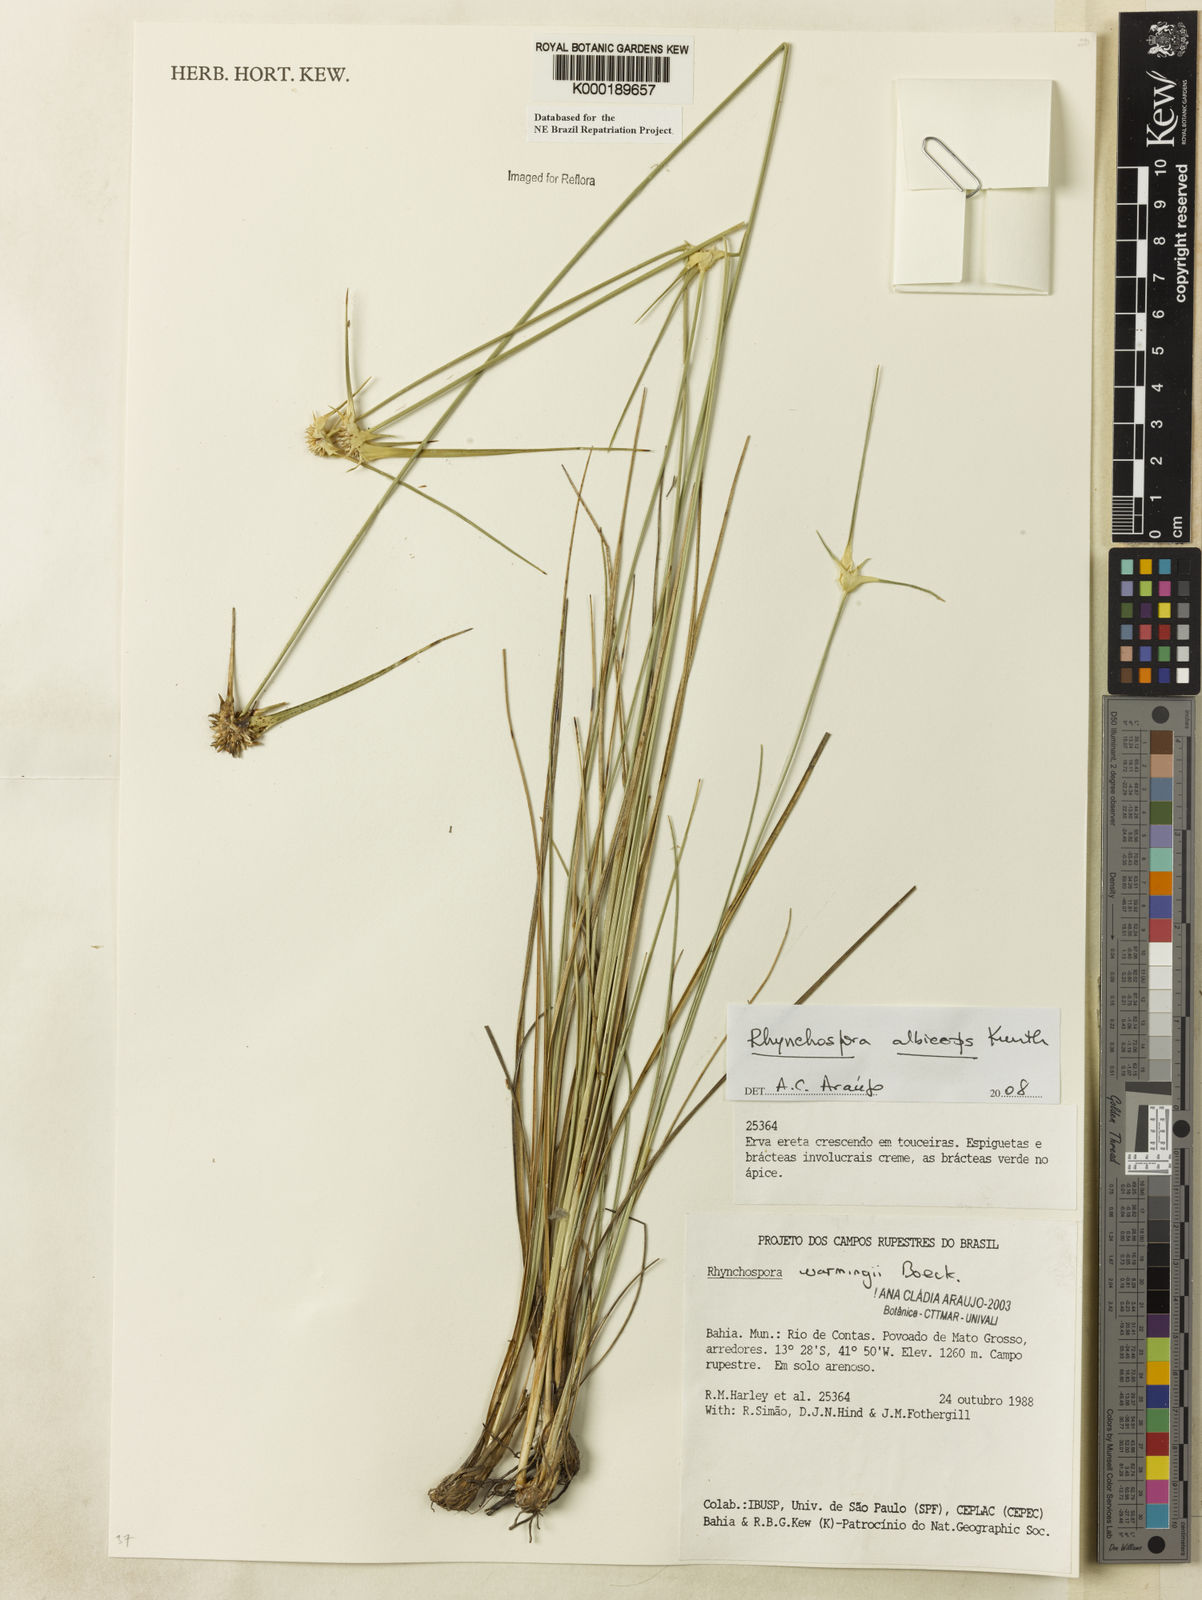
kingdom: Plantae
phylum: Tracheophyta
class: Liliopsida
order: Poales
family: Cyperaceae
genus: Rhynchospora
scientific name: Rhynchospora warmingii
